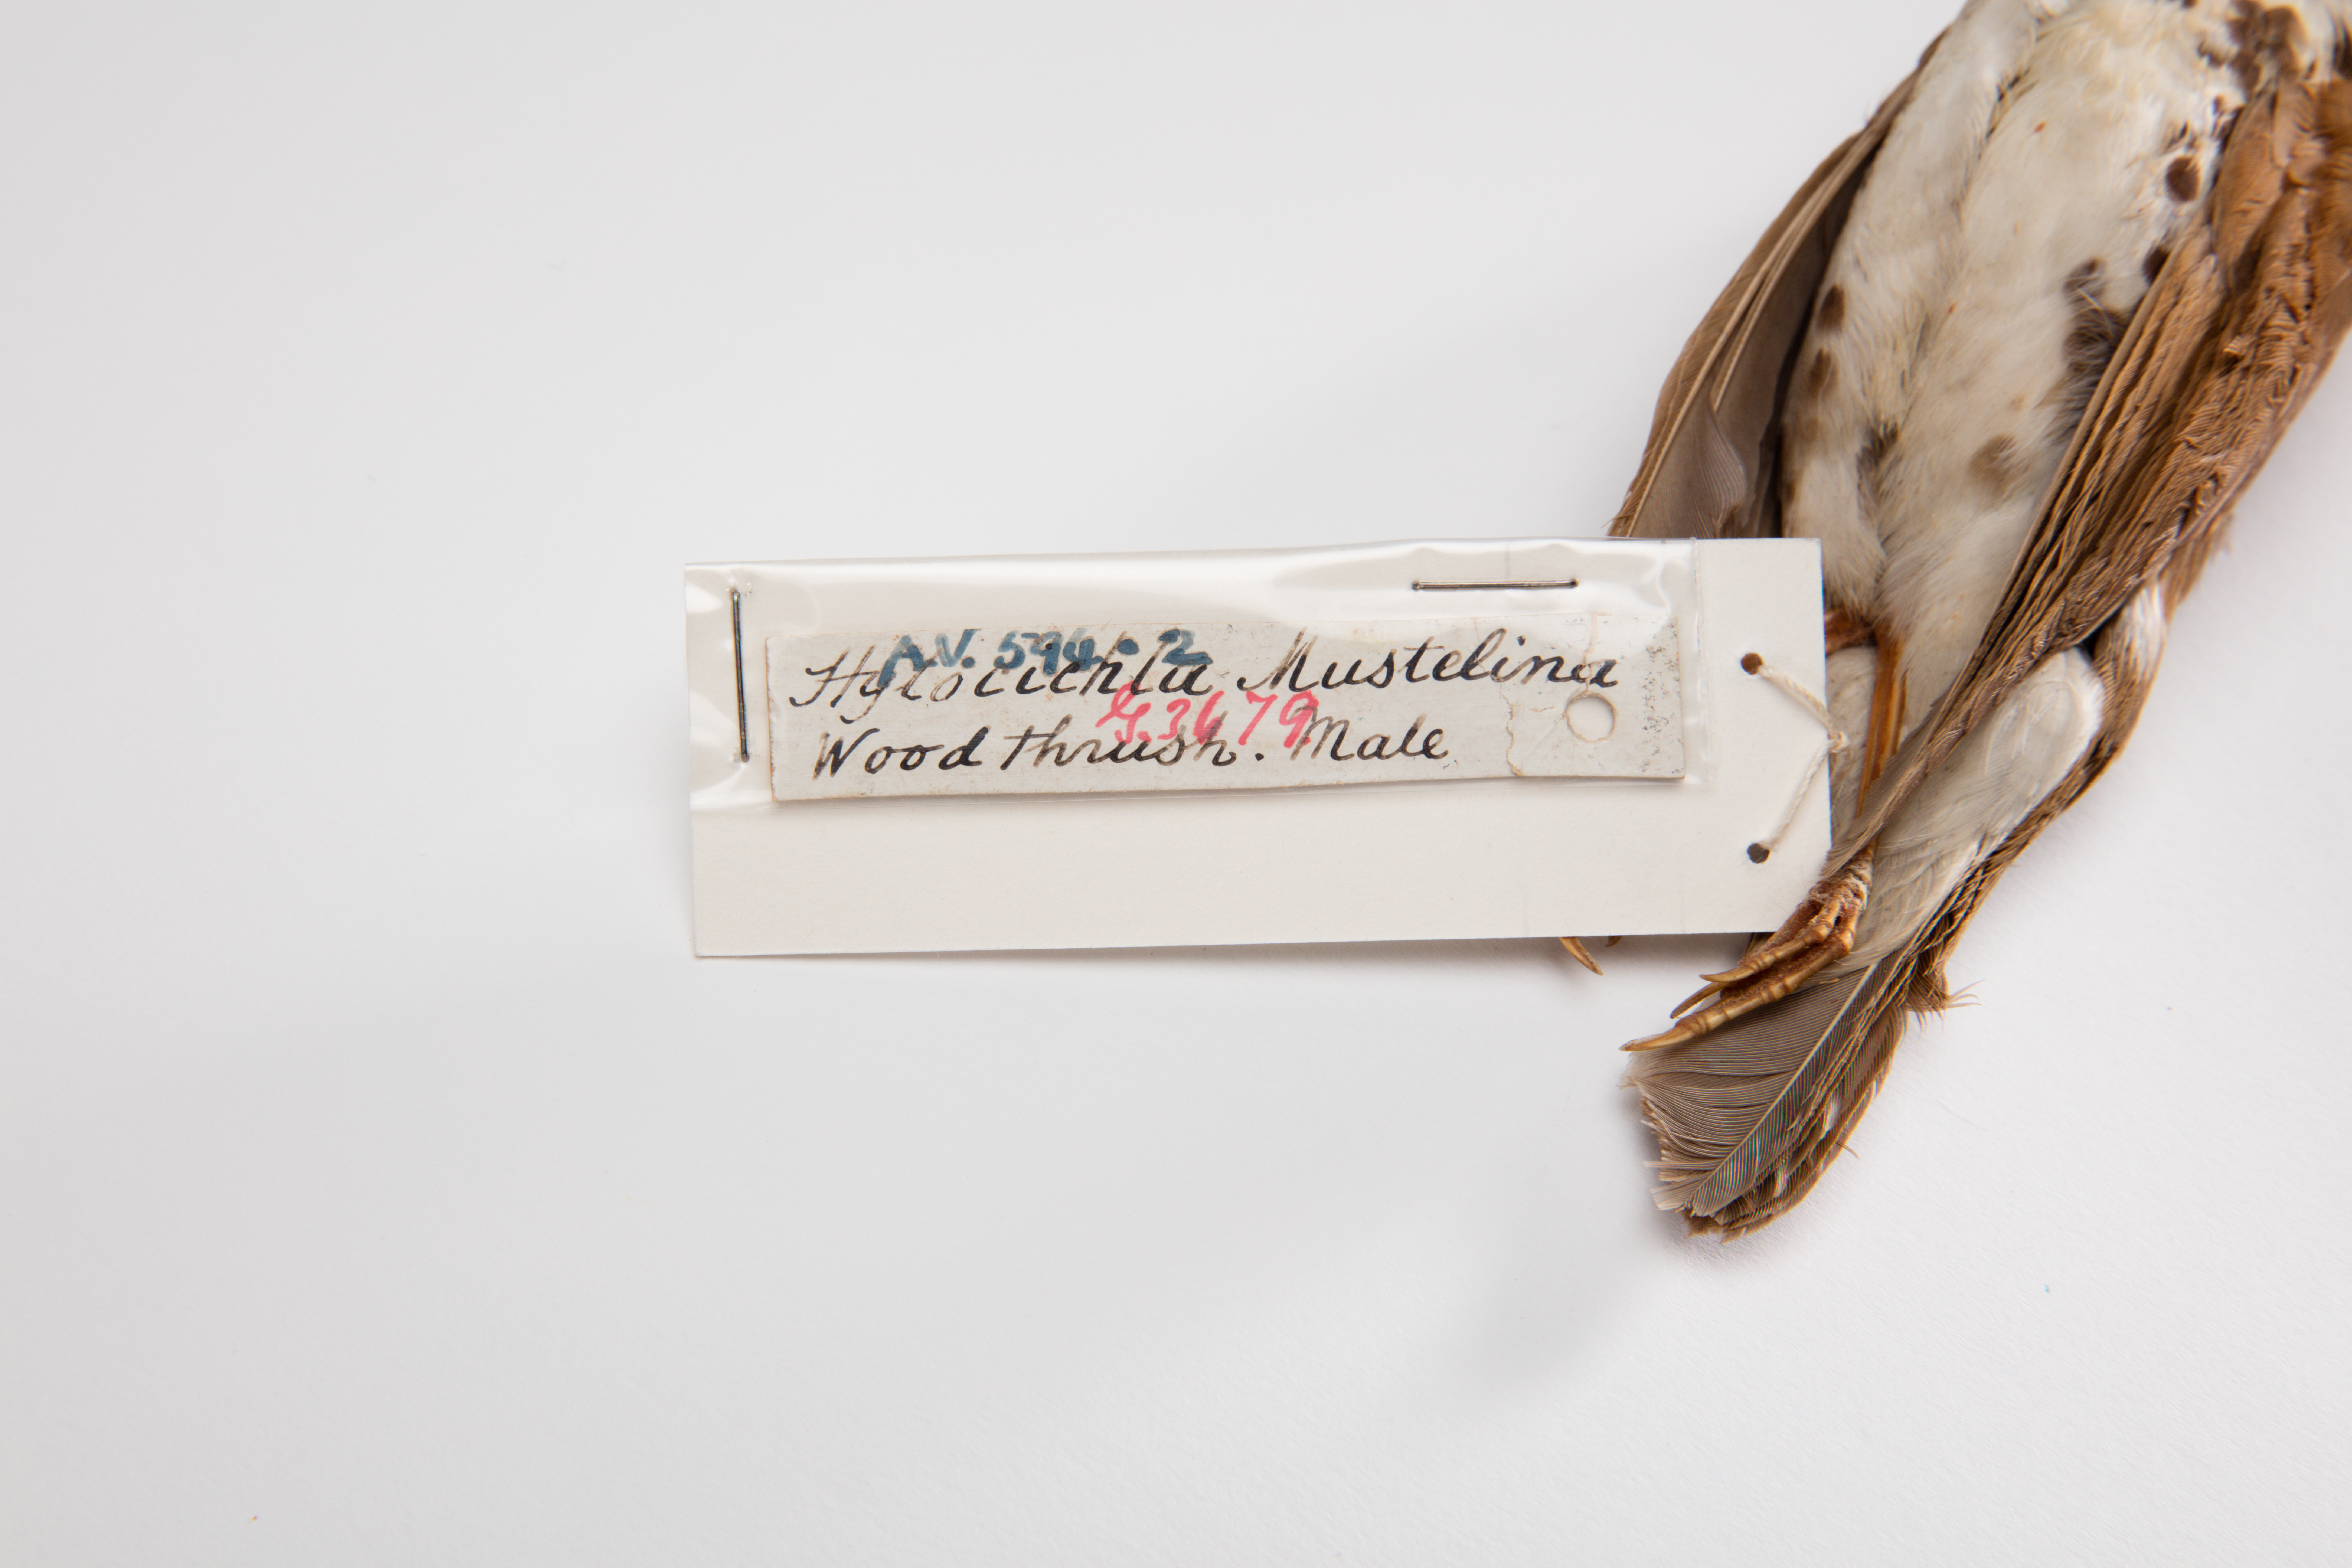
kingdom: Animalia
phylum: Chordata
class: Aves
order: Passeriformes
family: Turdidae
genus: Hylocichla
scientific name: Hylocichla mustelina
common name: Wood thrush
